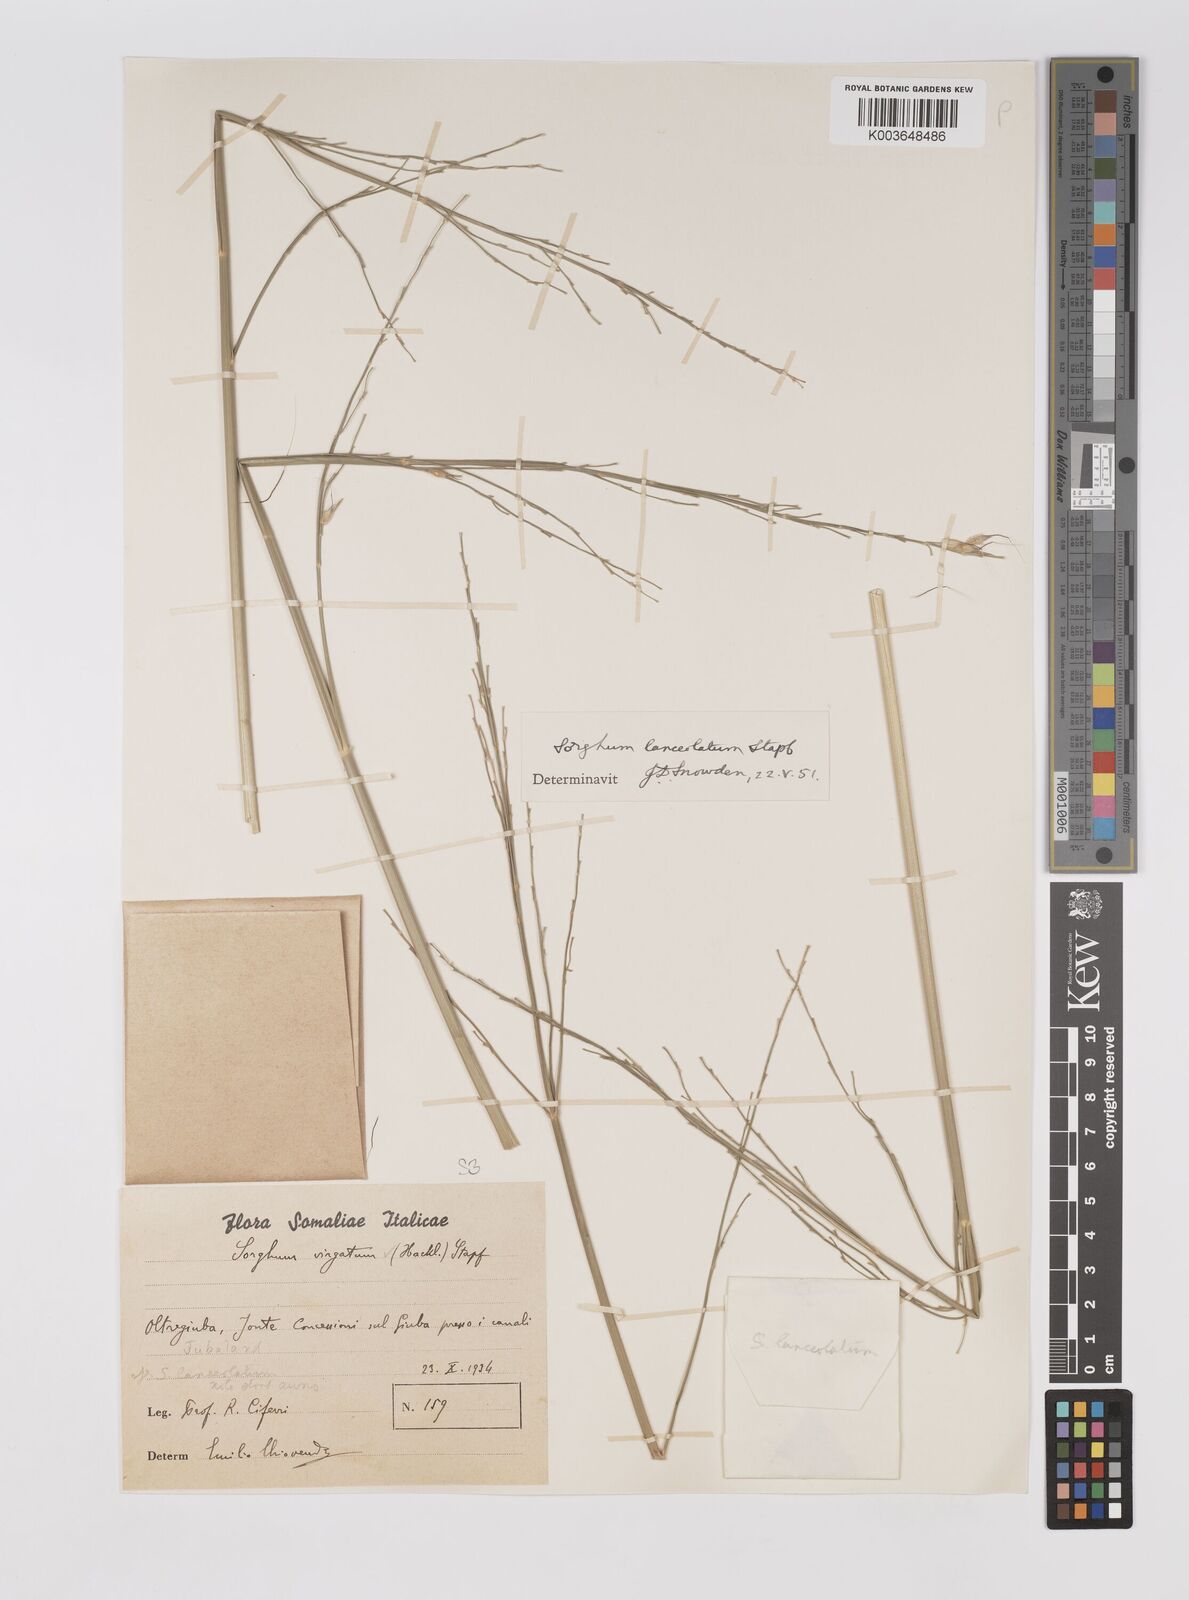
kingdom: Plantae
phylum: Tracheophyta
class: Liliopsida
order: Poales
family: Poaceae
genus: Sorghum
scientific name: Sorghum arundinaceum
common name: Sorghum
